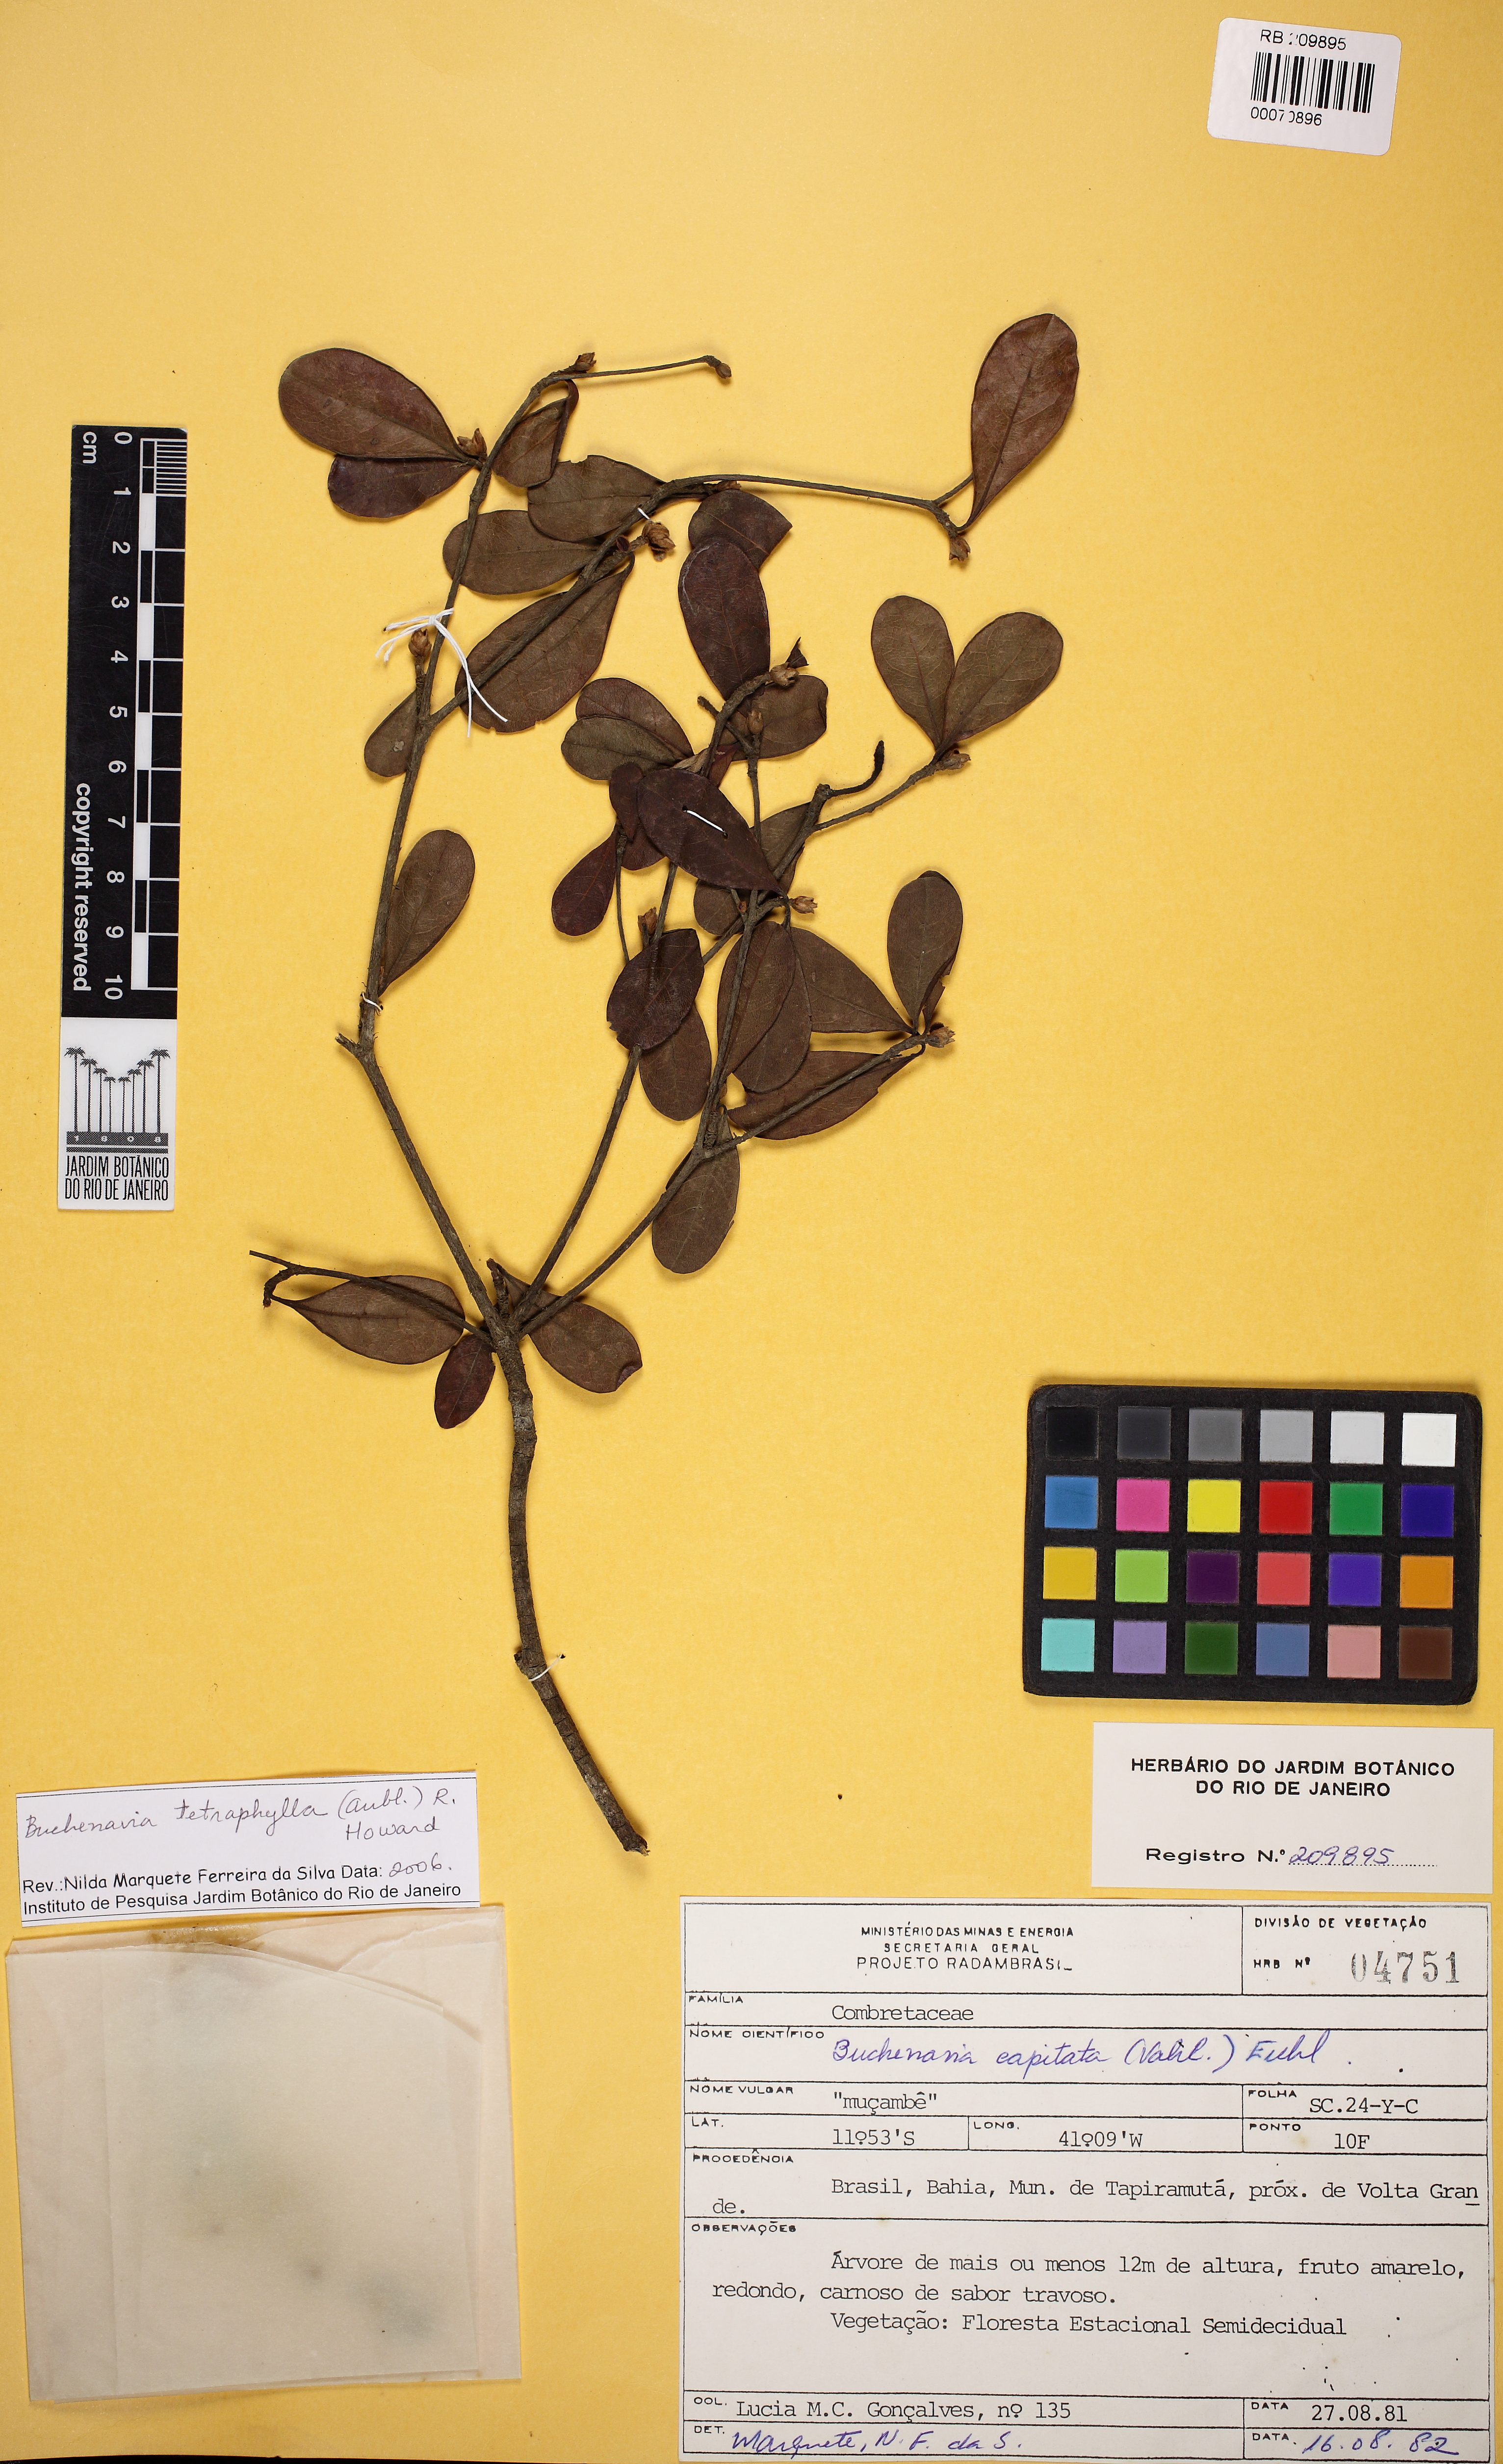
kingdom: Plantae
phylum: Tracheophyta
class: Magnoliopsida
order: Myrtales
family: Combretaceae
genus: Terminalia
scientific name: Terminalia tetraphylla
